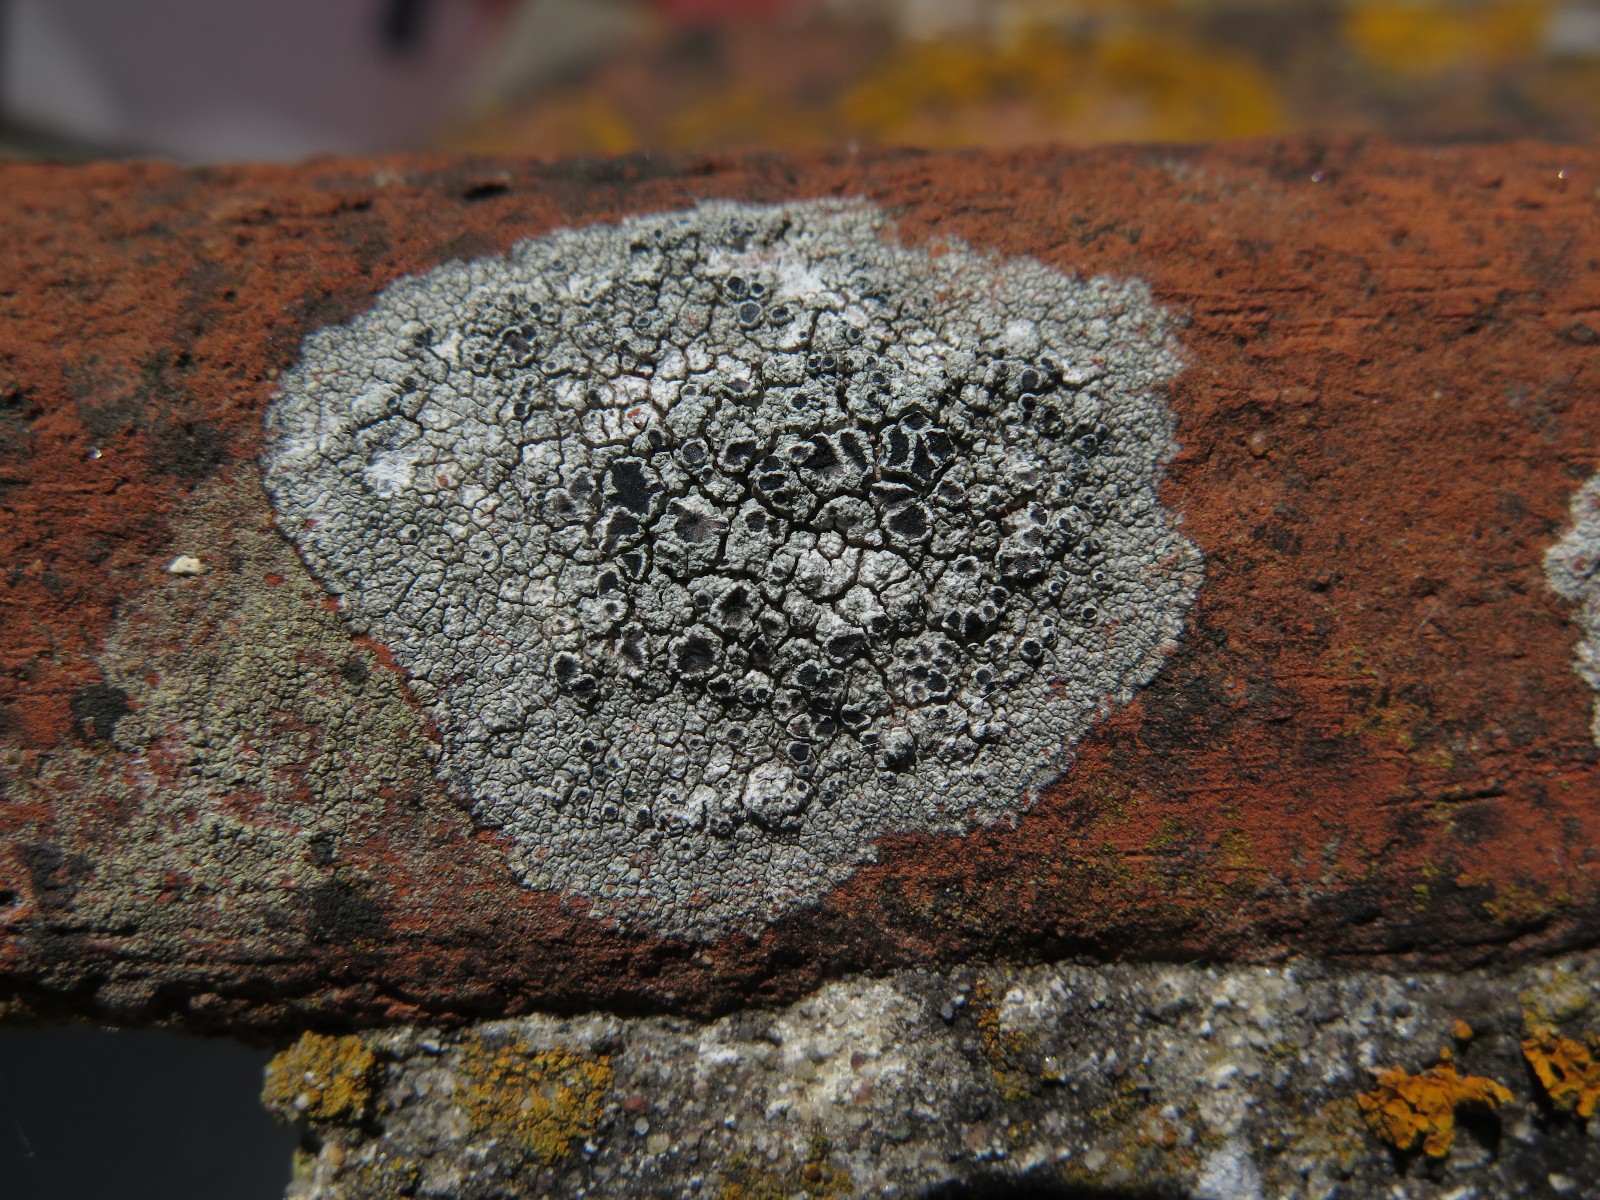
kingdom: Fungi
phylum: Ascomycota
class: Lecanoromycetes
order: Lecanorales
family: Tephromelataceae
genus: Tephromela
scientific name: Tephromela atra
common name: sortfrugtet kantskivelav
